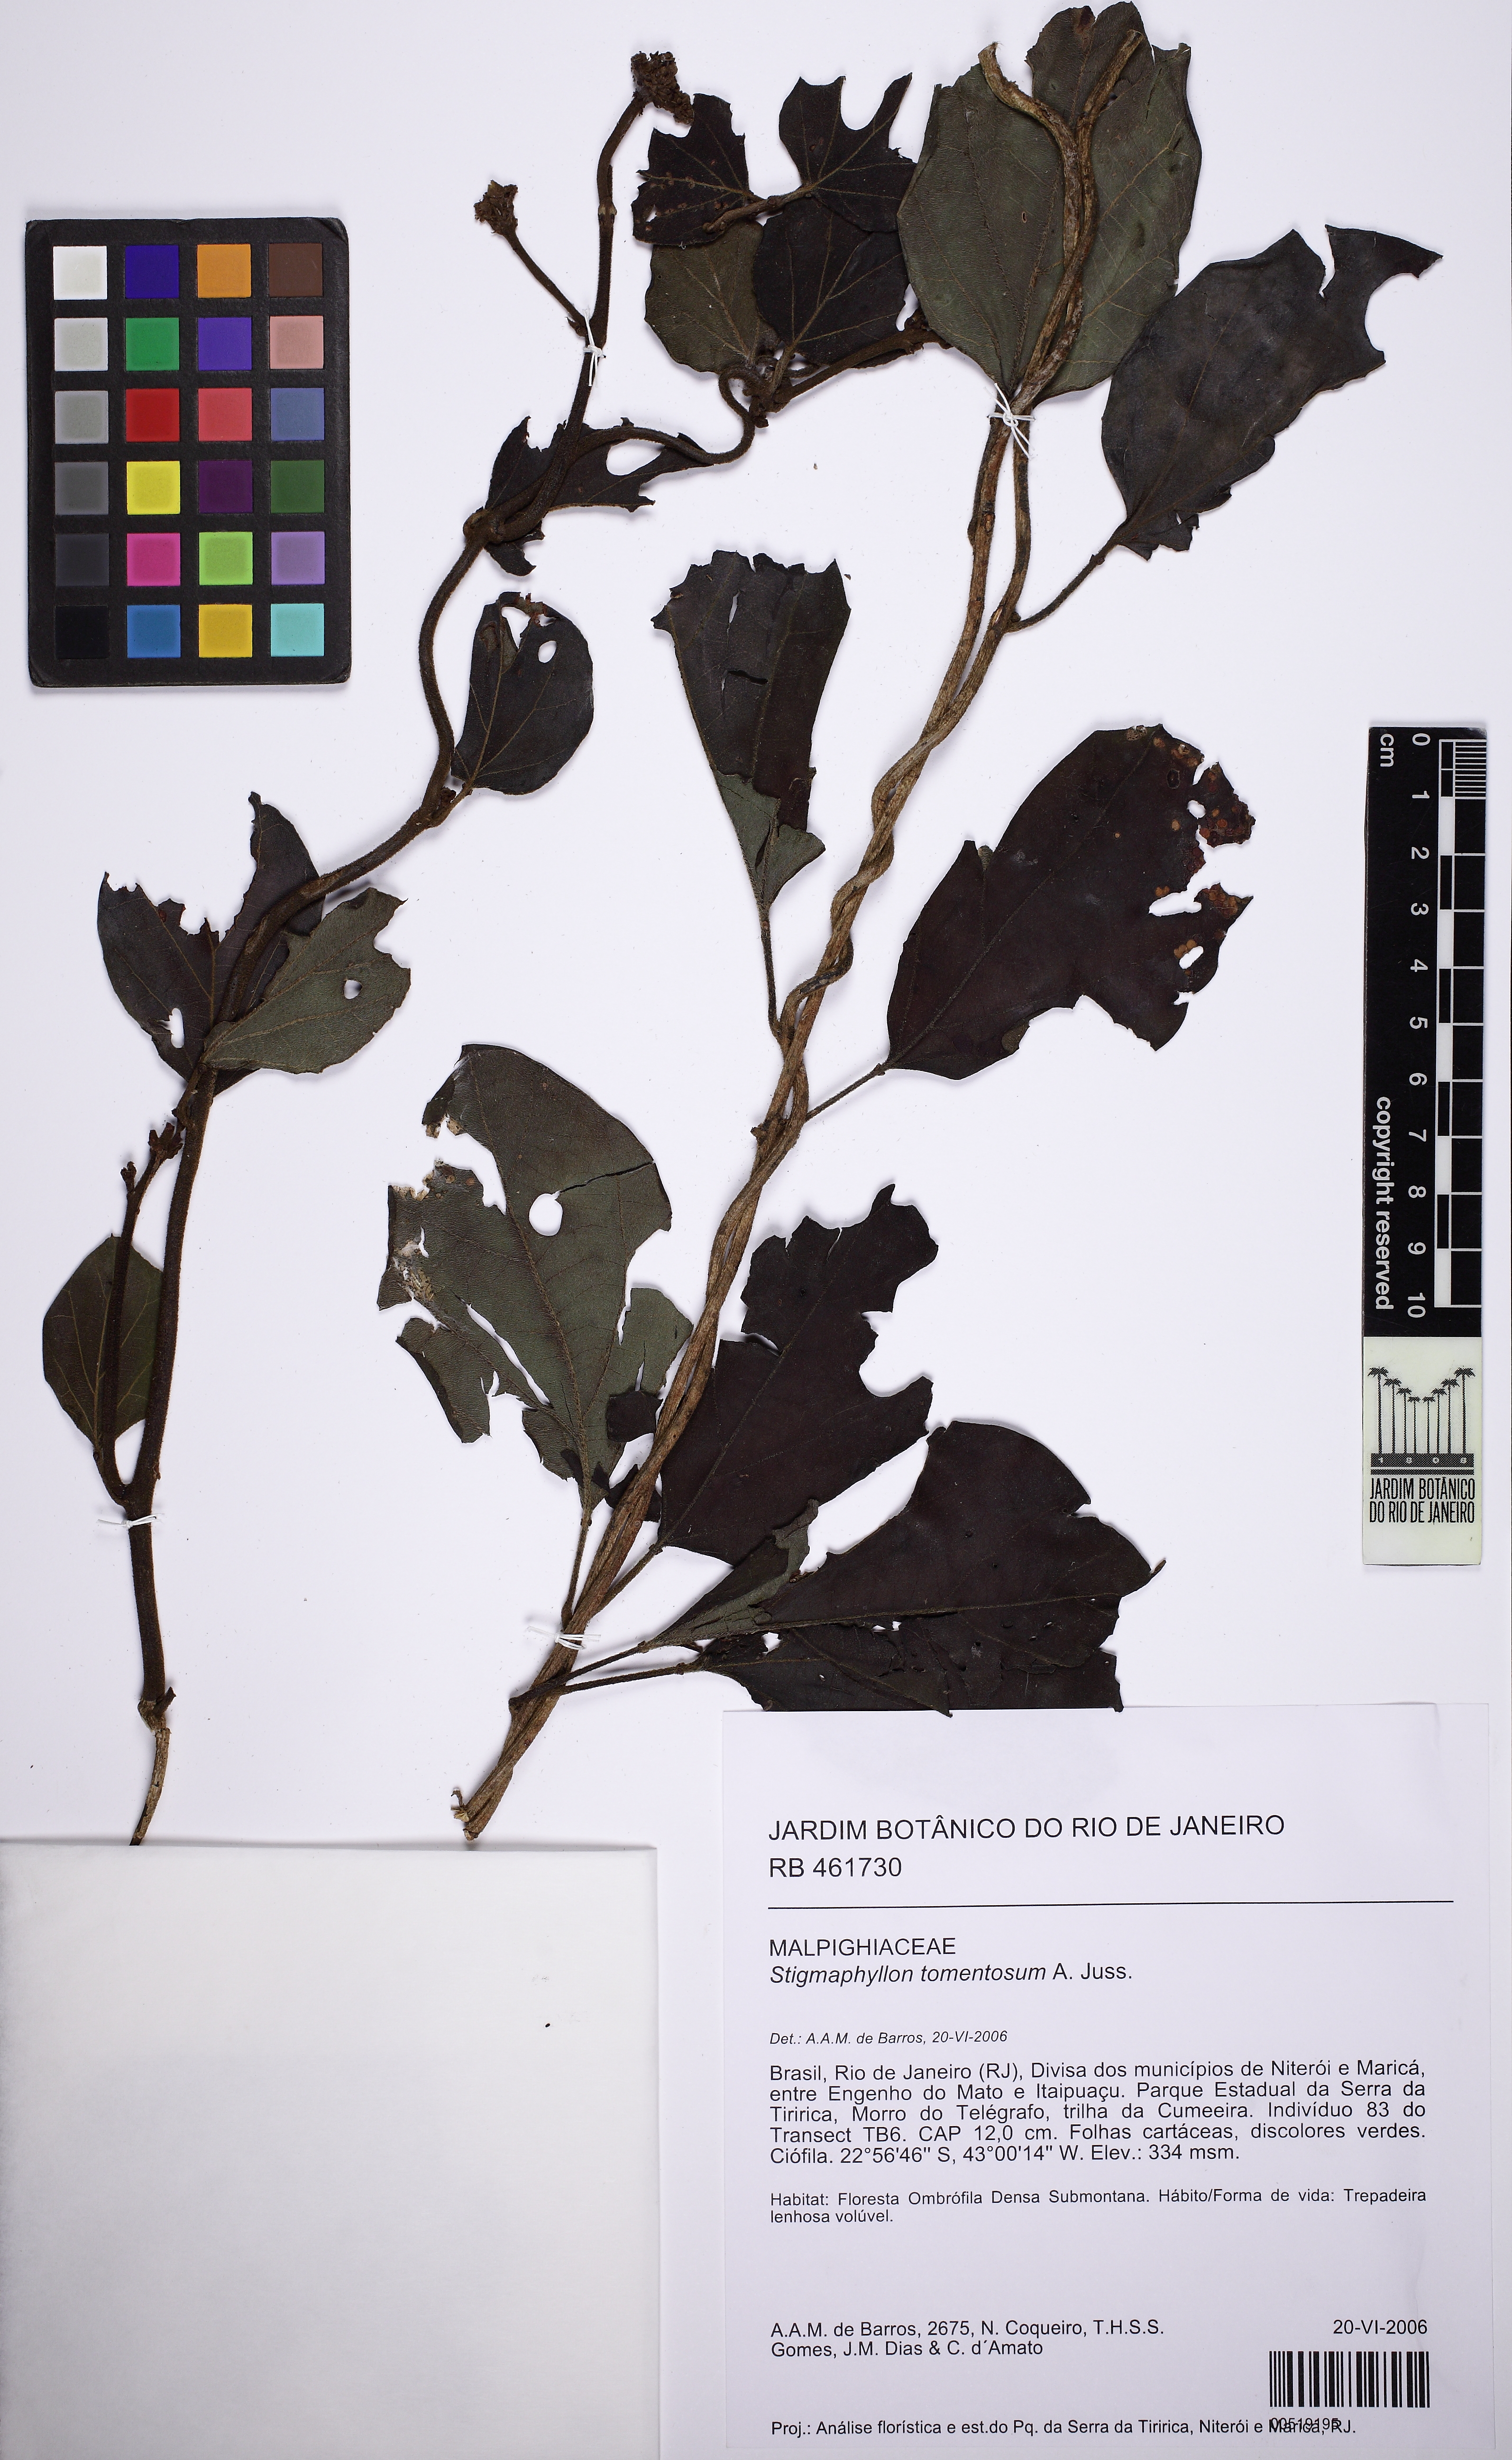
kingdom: Plantae
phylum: Tracheophyta
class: Magnoliopsida
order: Malpighiales
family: Malpighiaceae
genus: Stigmaphyllon
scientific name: Stigmaphyllon tomentosum
